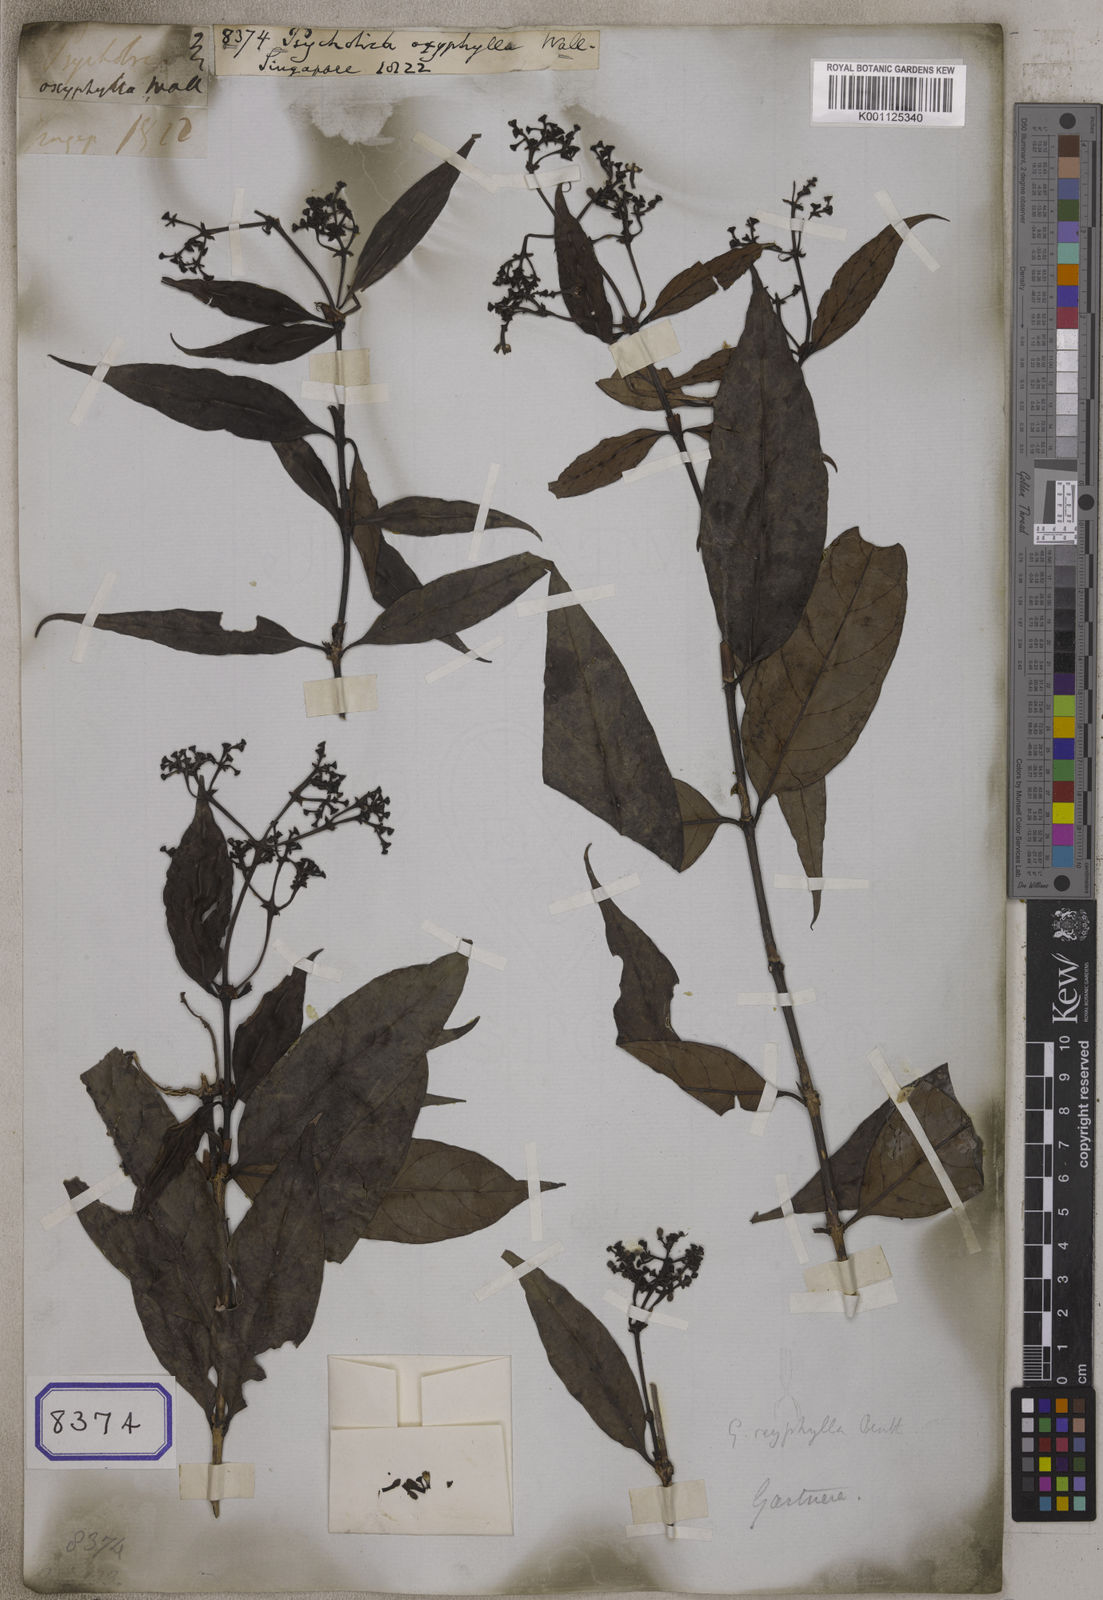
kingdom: Plantae
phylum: Tracheophyta
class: Magnoliopsida
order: Gentianales
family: Rubiaceae
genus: Gaertnera
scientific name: Gaertnera vaginans
